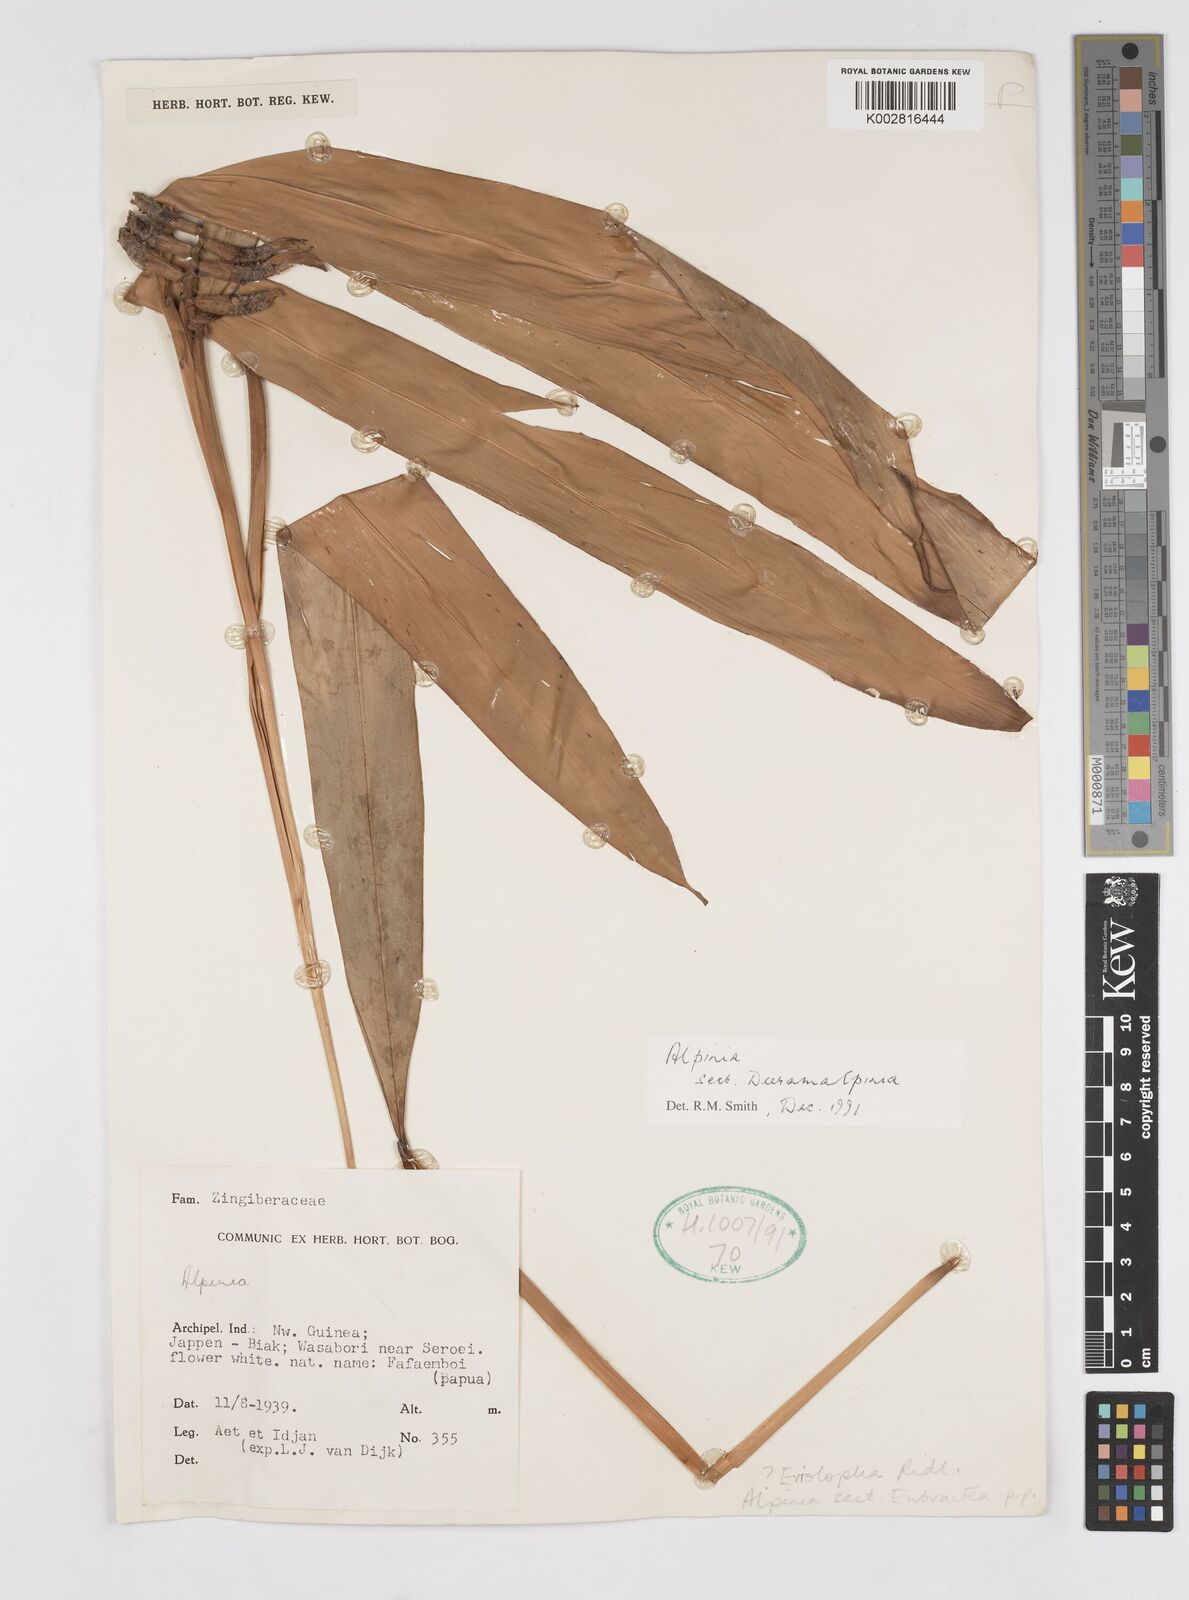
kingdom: Plantae
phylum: Tracheophyta
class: Liliopsida
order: Zingiberales
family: Zingiberaceae
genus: Alpinia
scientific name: Alpinia
